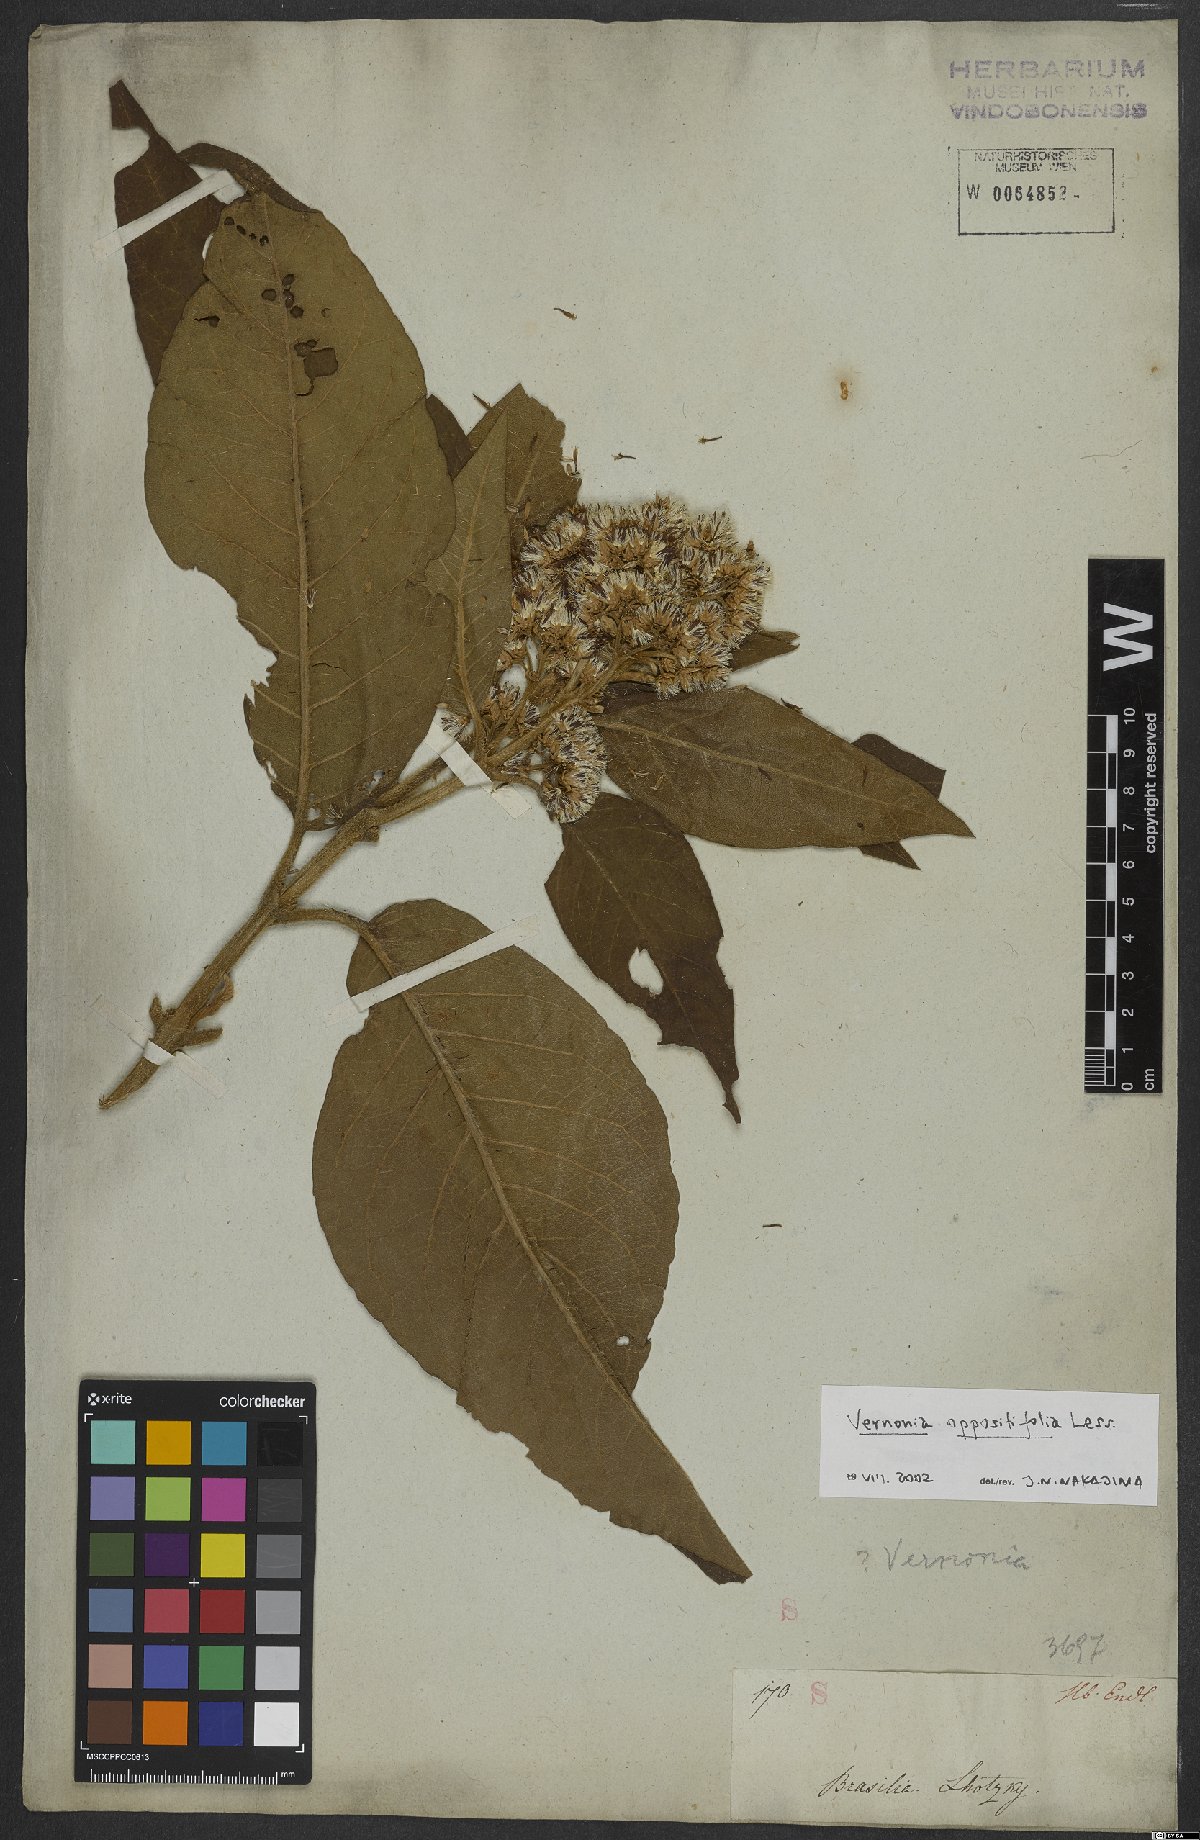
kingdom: Plantae
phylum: Tracheophyta
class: Magnoliopsida
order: Asterales
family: Asteraceae
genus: Critoniopsis
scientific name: Critoniopsis stellata
